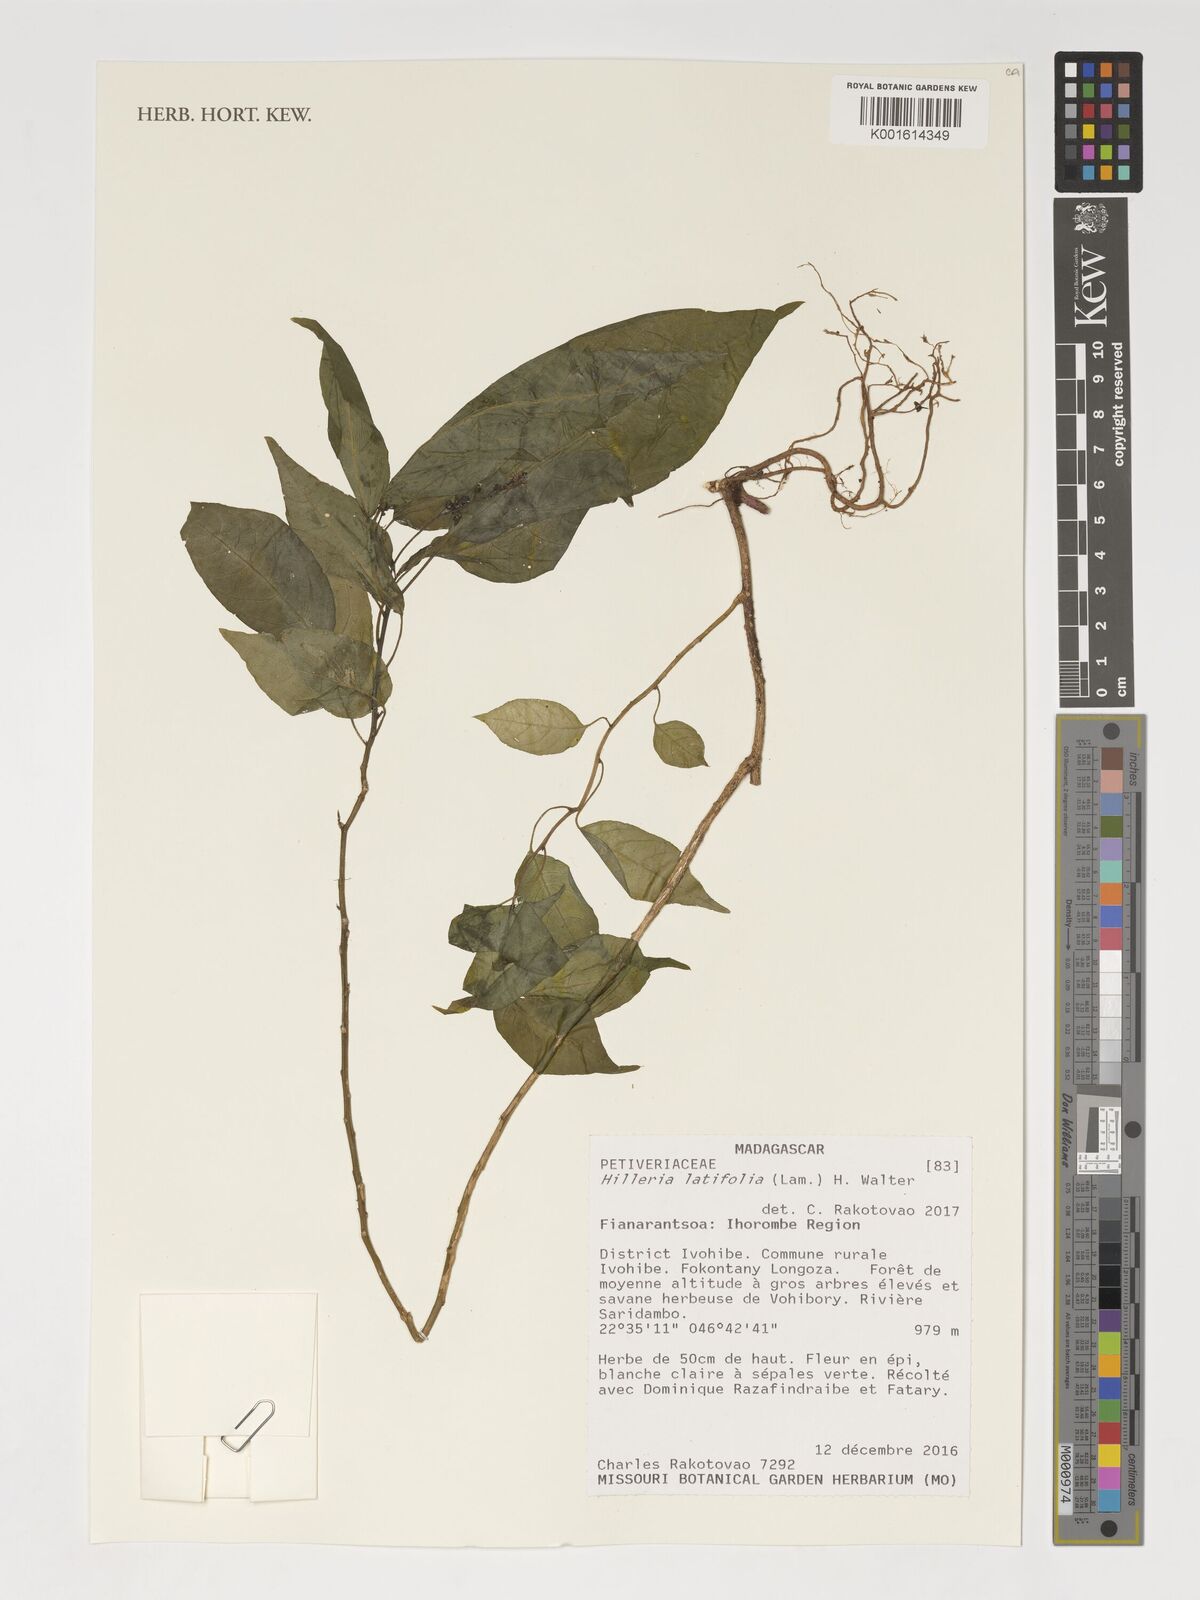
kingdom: Plantae
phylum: Tracheophyta
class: Magnoliopsida
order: Caryophyllales
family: Phytolaccaceae
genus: Hilleria
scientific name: Hilleria latifolia
